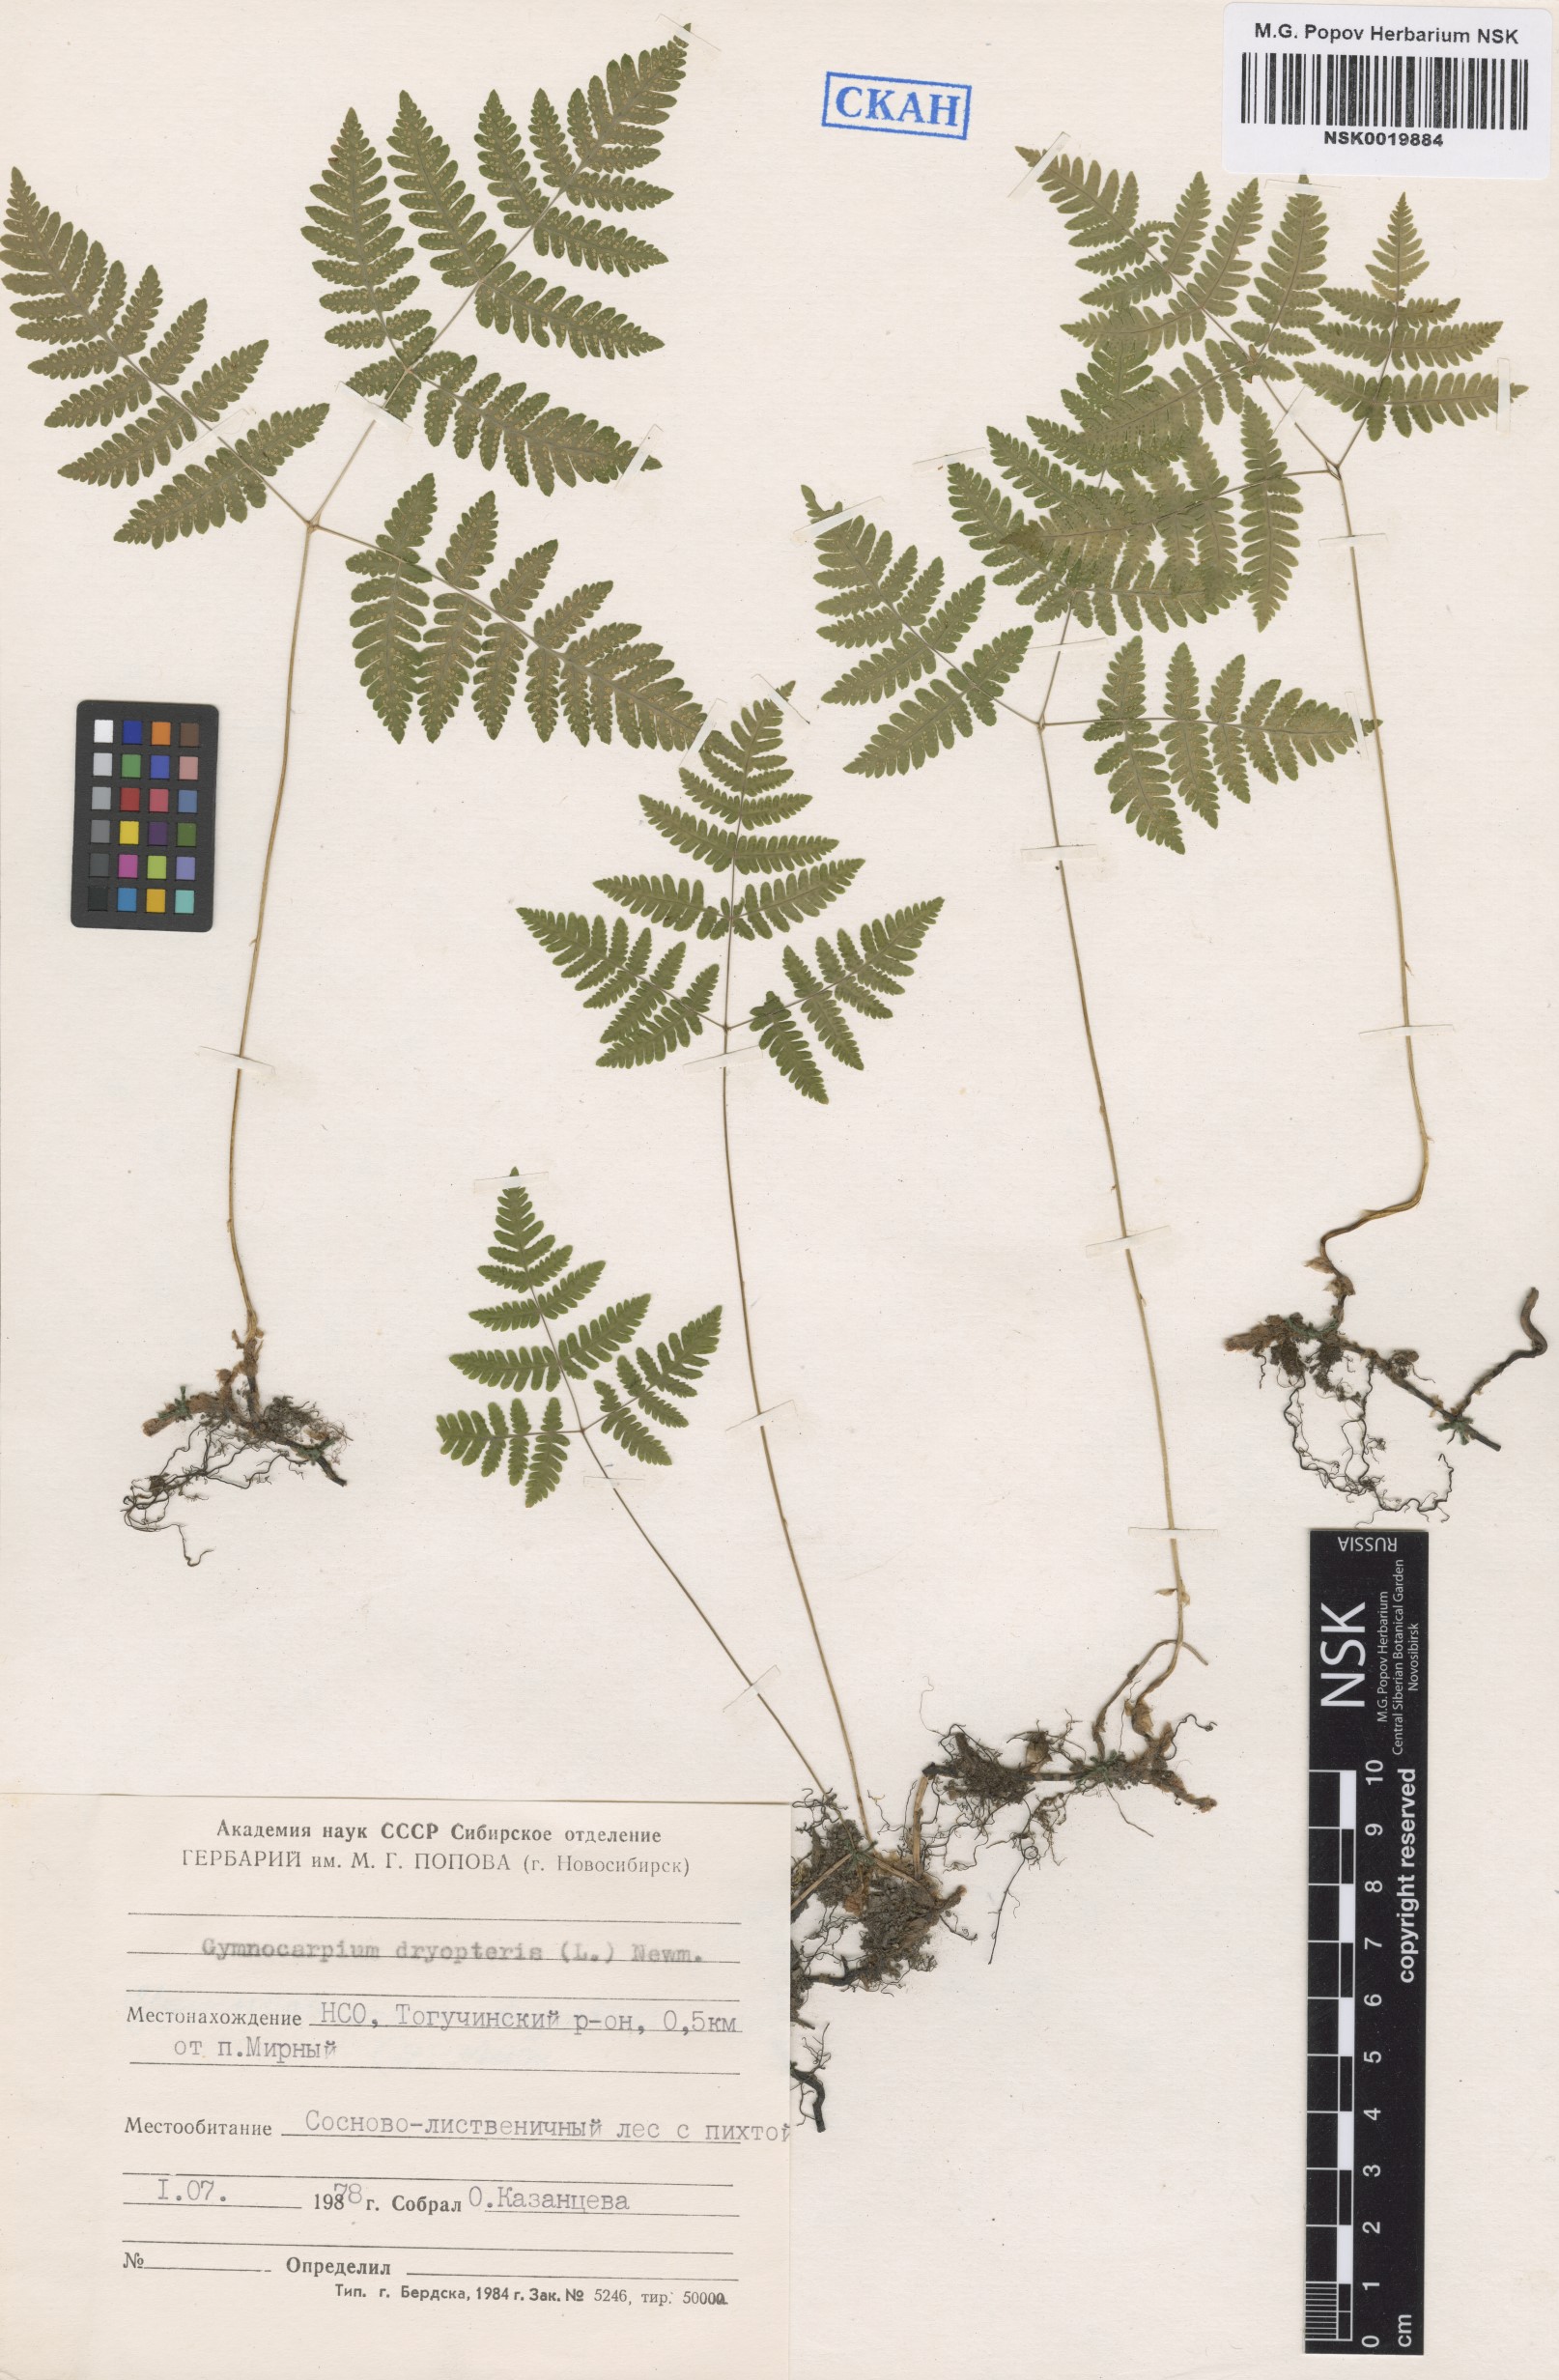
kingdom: Plantae
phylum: Tracheophyta
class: Polypodiopsida
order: Polypodiales
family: Cystopteridaceae
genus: Gymnocarpium
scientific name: Gymnocarpium dryopteris
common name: Oak fern
